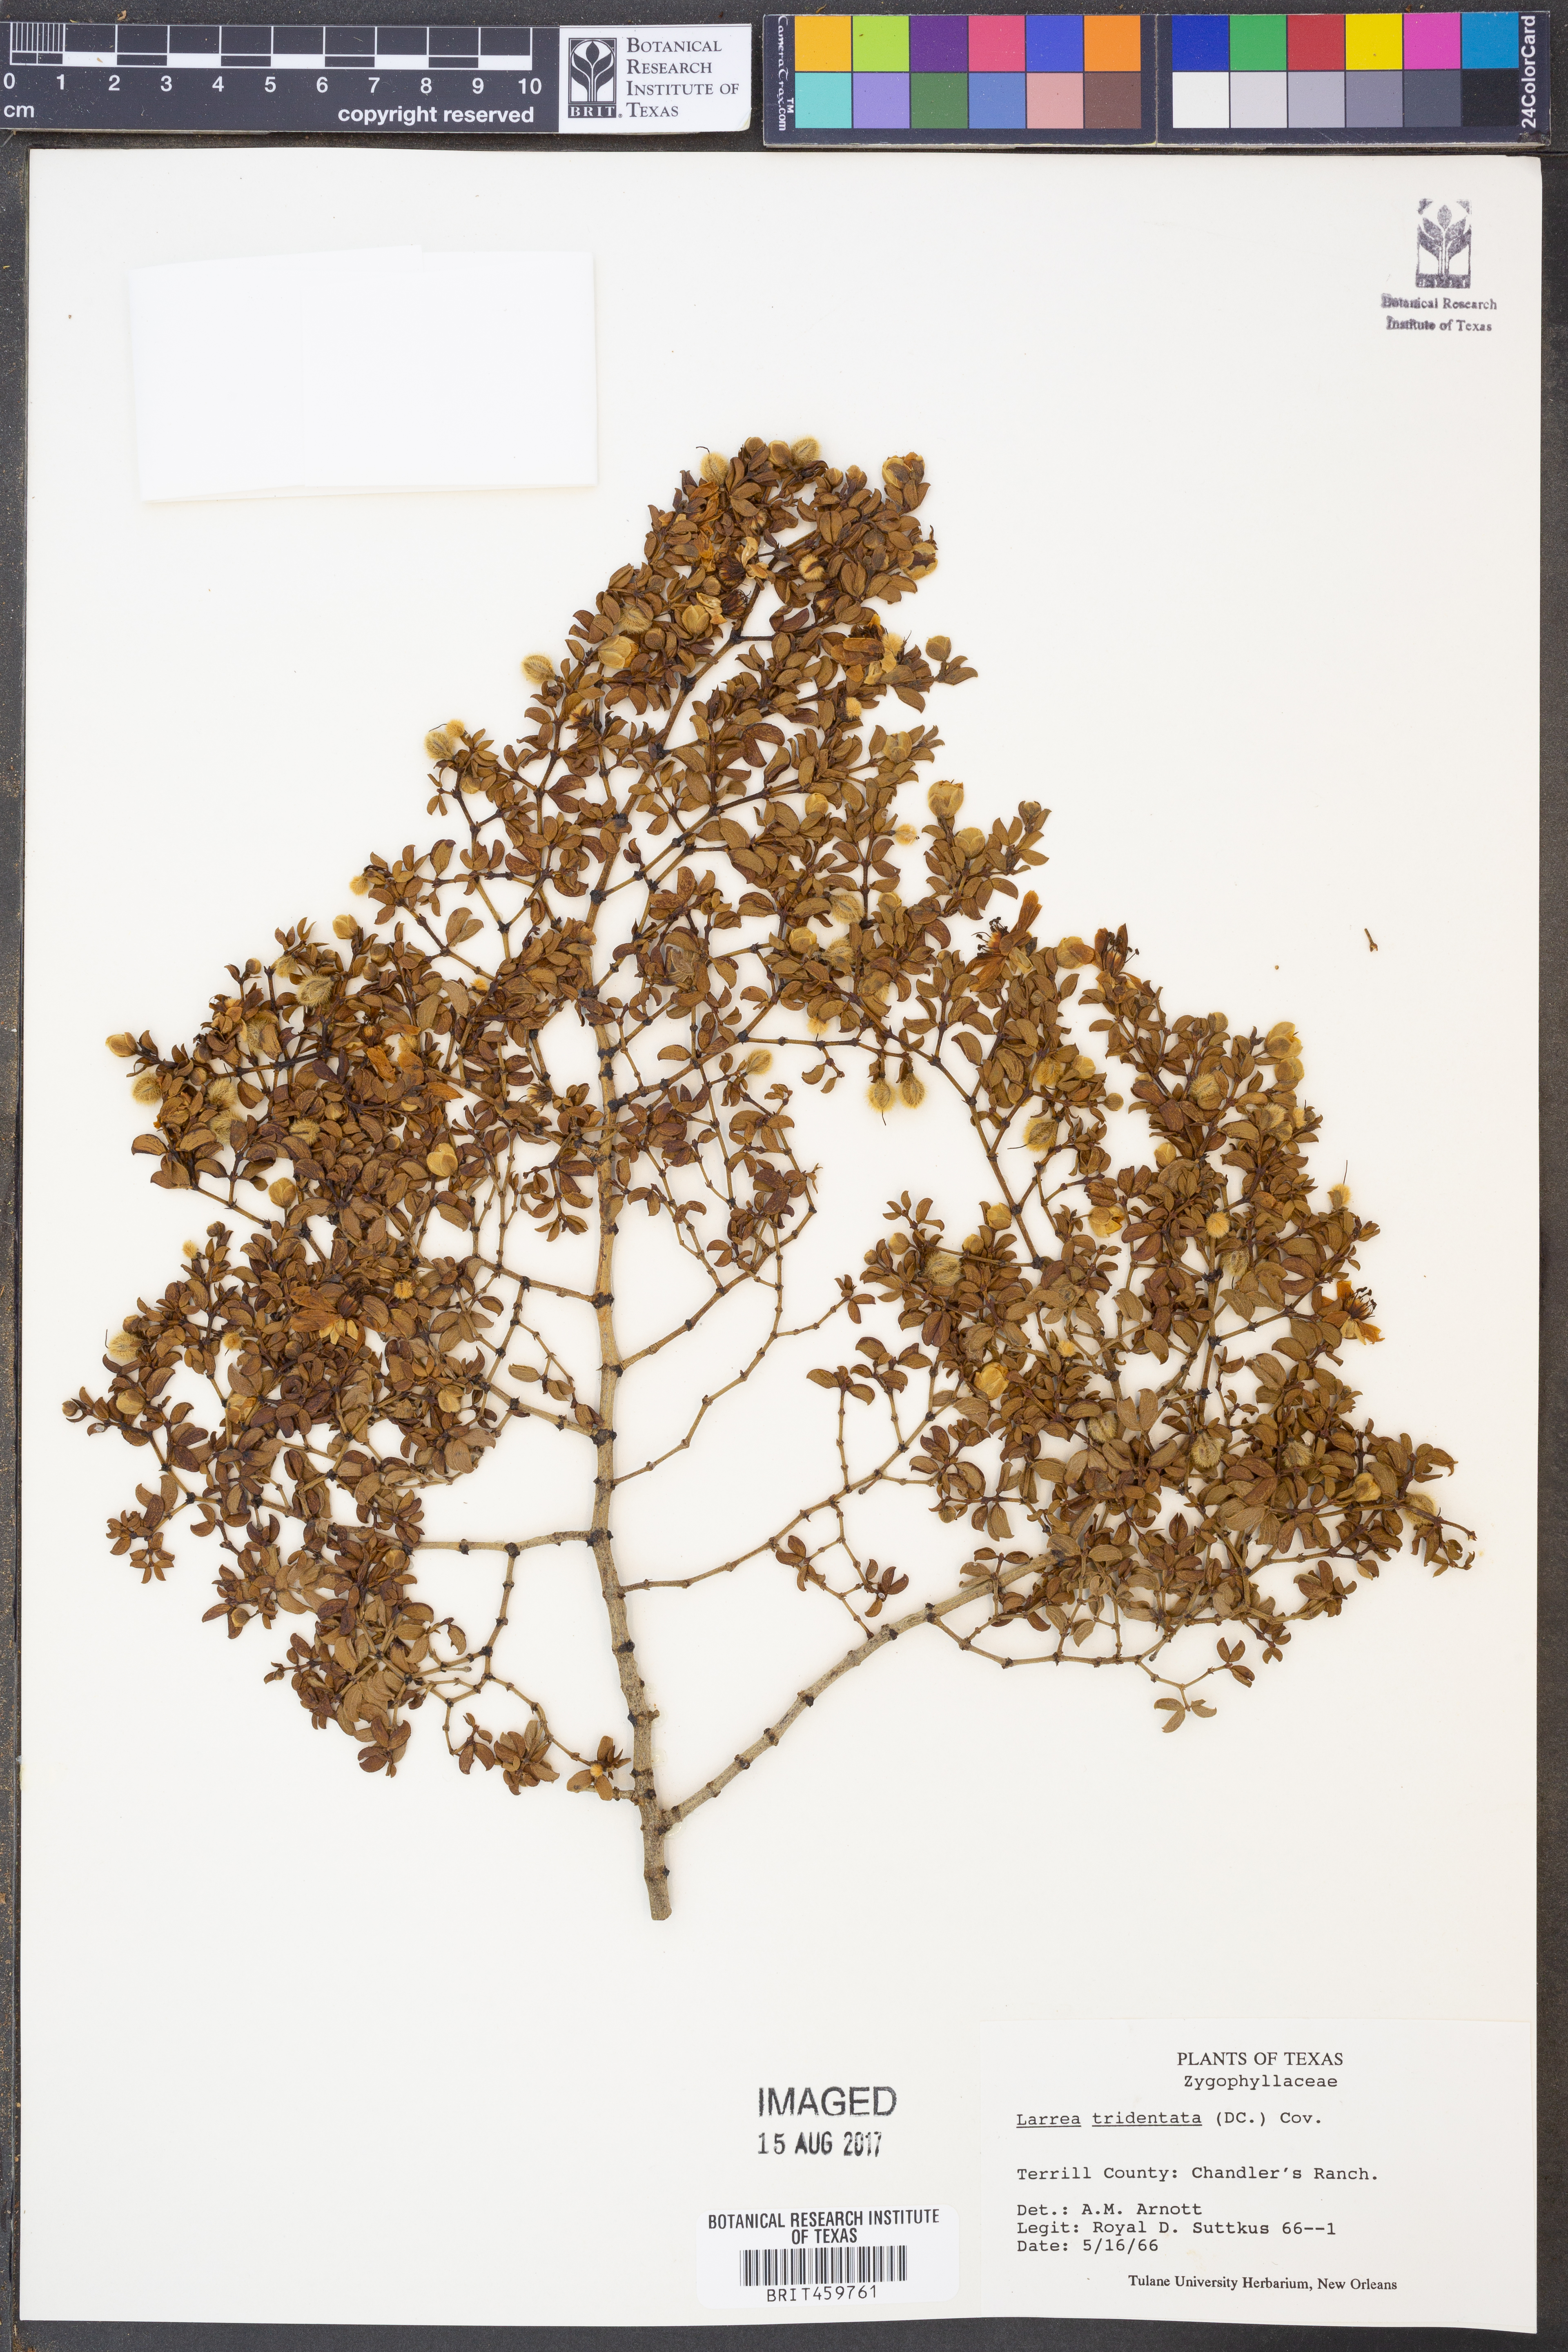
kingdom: Plantae
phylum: Tracheophyta
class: Magnoliopsida
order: Zygophyllales
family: Zygophyllaceae
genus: Larrea
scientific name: Larrea tridentata
